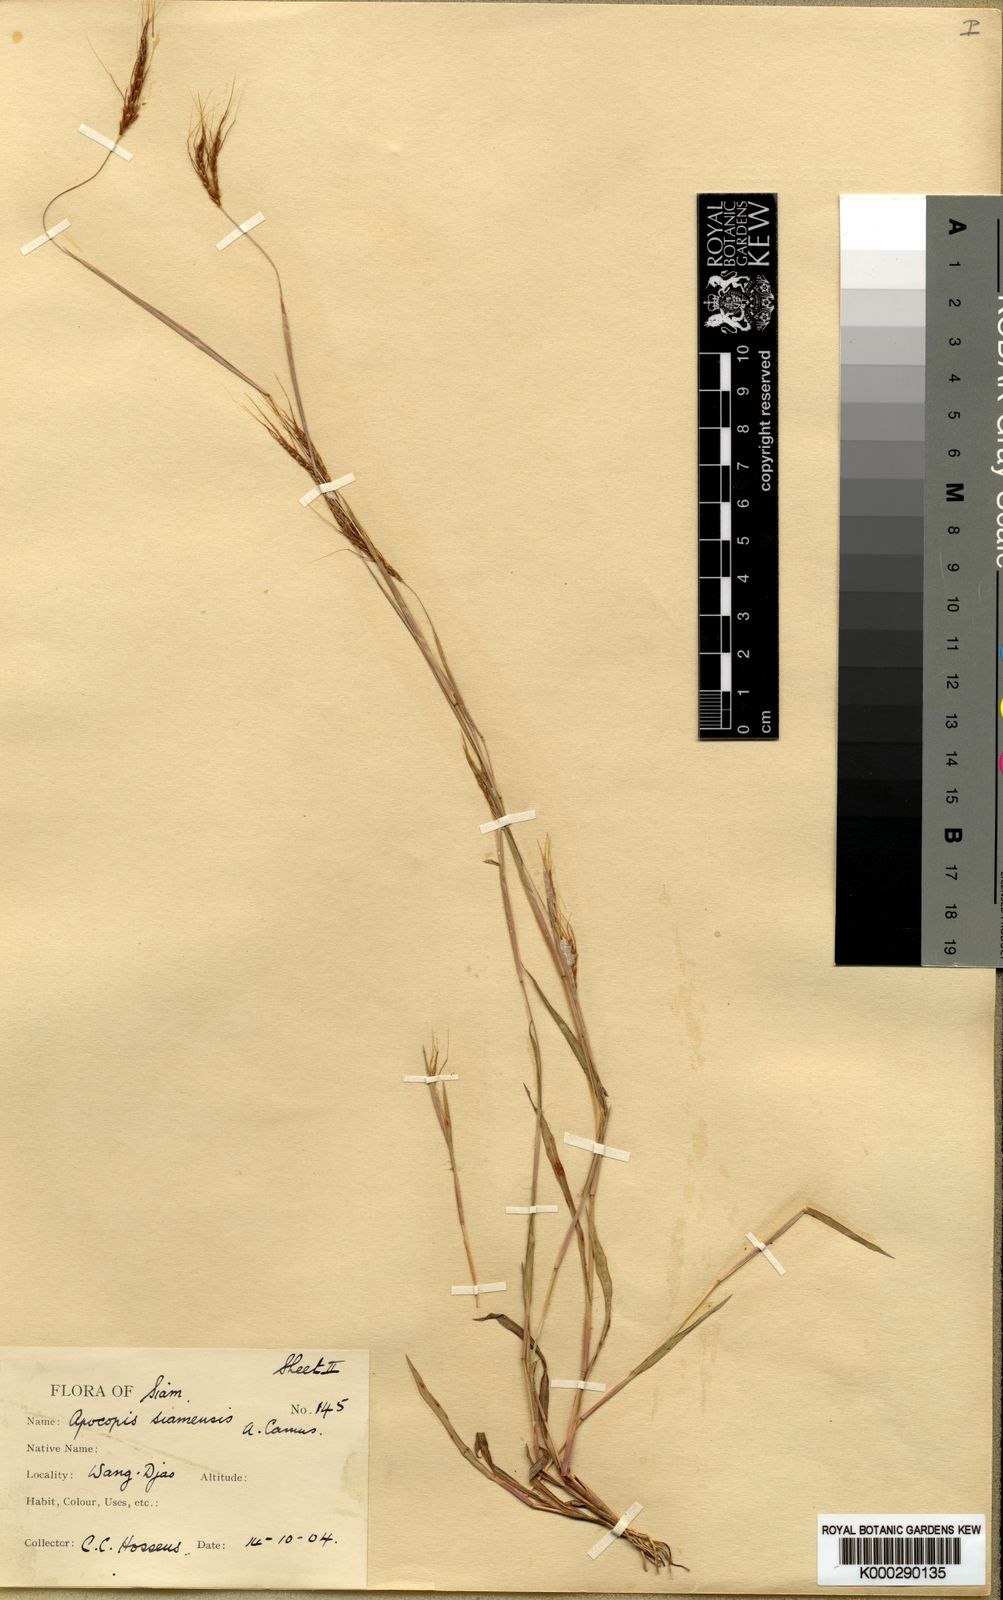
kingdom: Plantae
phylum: Tracheophyta
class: Liliopsida
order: Poales
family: Poaceae
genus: Apocopis
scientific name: Apocopis siamensis
